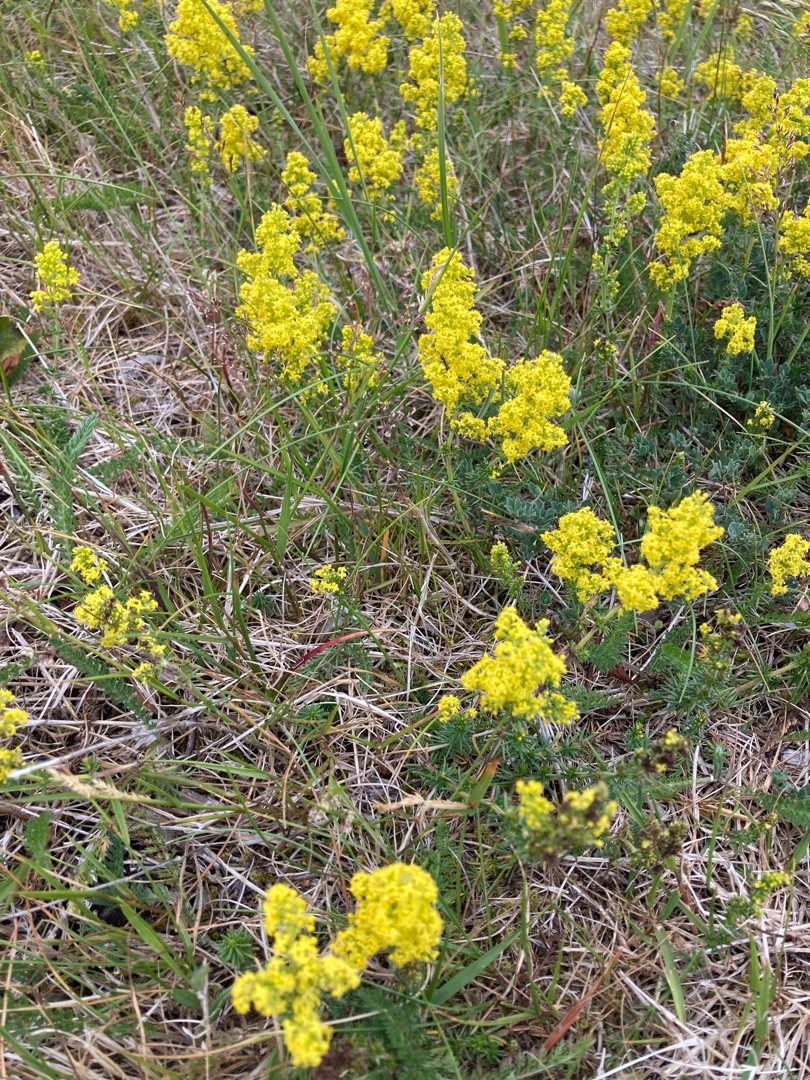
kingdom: Plantae
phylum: Tracheophyta
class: Magnoliopsida
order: Gentianales
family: Rubiaceae
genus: Galium
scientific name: Galium verum
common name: Gul snerre
